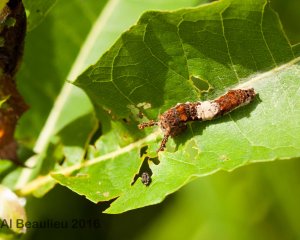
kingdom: Animalia
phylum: Arthropoda
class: Insecta
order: Lepidoptera
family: Nymphalidae
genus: Limenitis
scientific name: Limenitis archippus
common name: Viceroy
